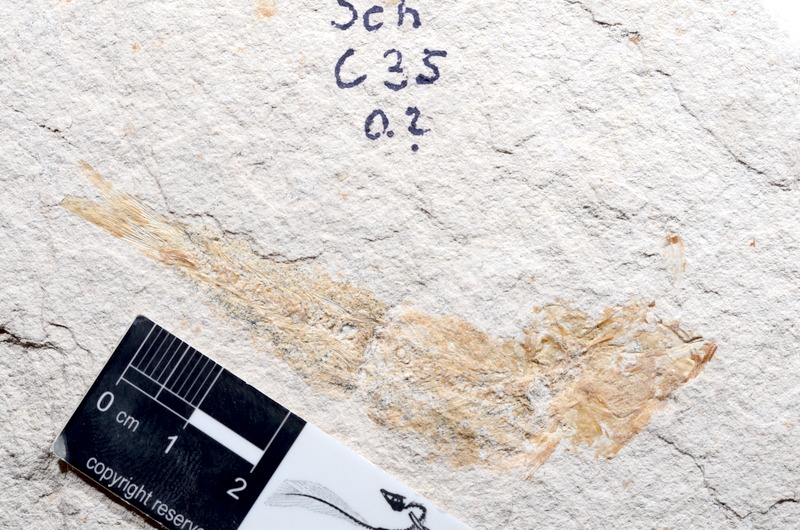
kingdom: Animalia
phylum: Chordata
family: Ascalaboidae
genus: Tharsis
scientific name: Tharsis dubius
